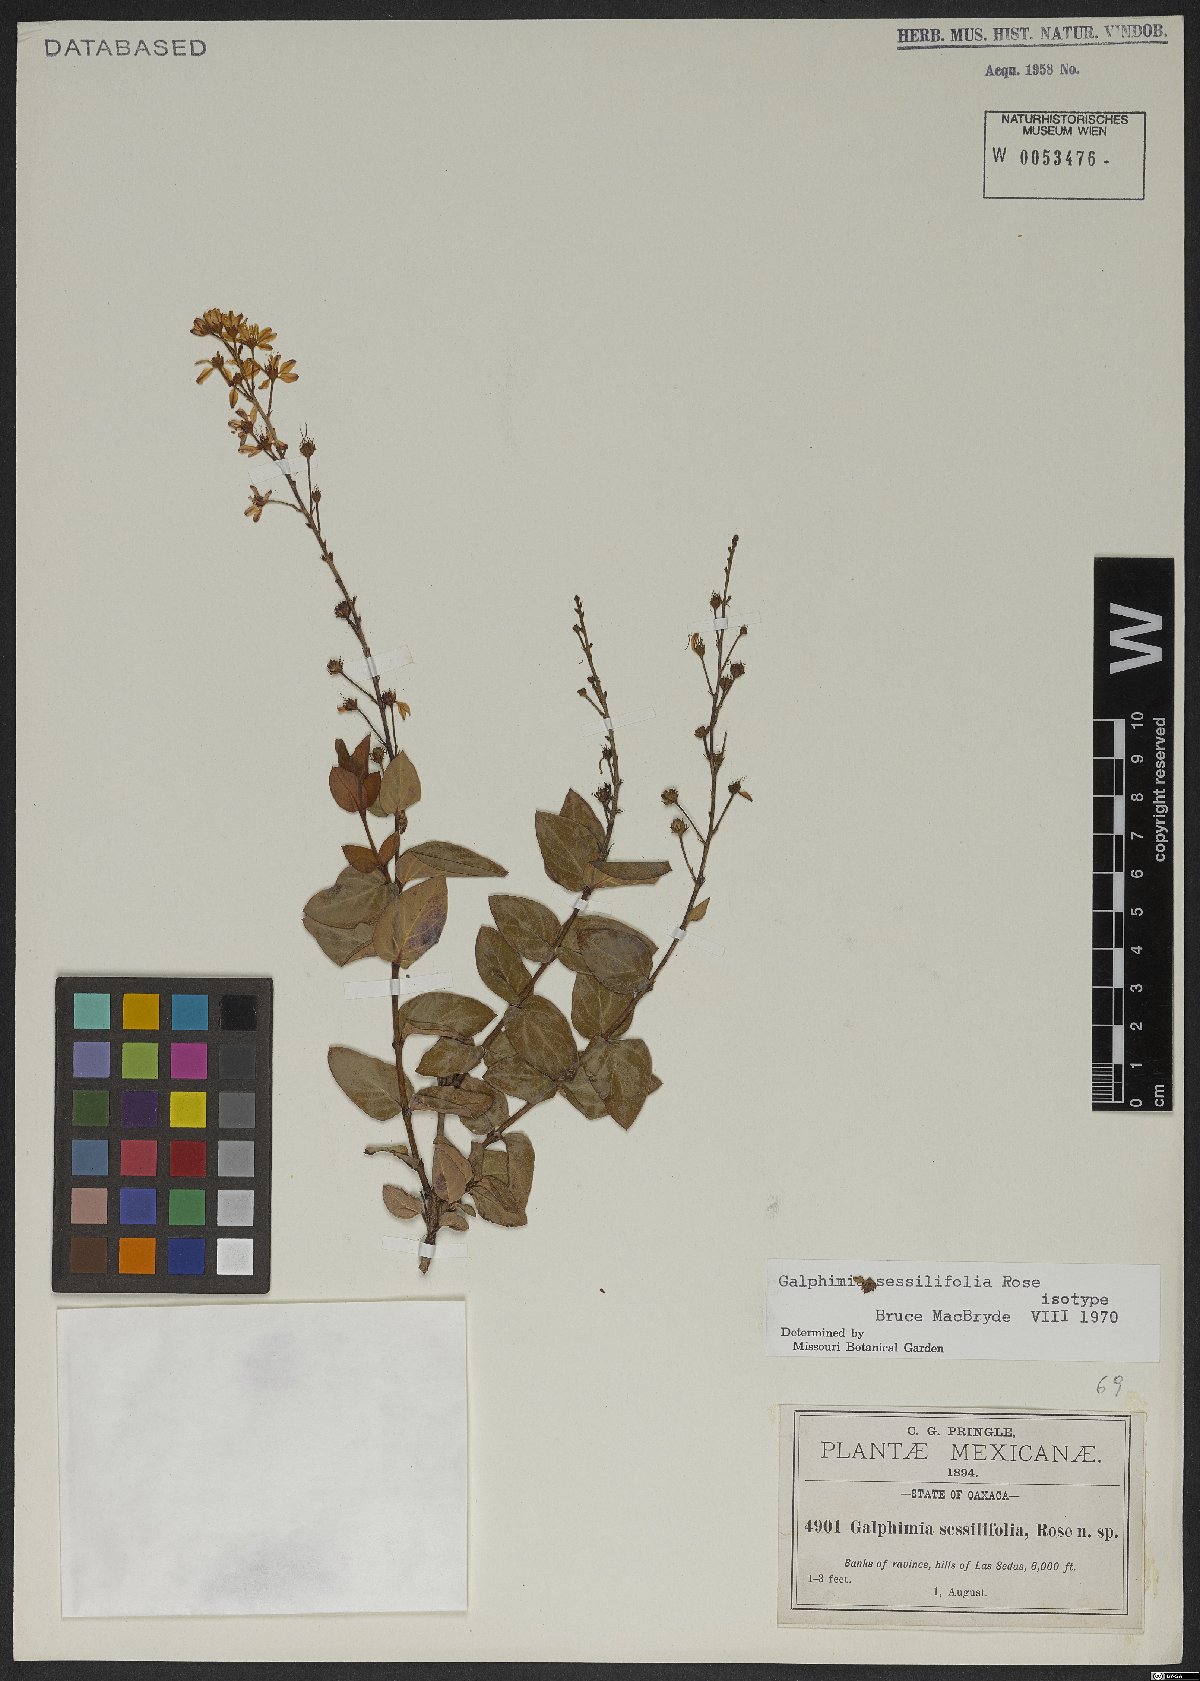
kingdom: Plantae
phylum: Tracheophyta
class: Magnoliopsida
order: Malpighiales
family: Malpighiaceae
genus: Galphimia
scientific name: Galphimia sessilifolia
